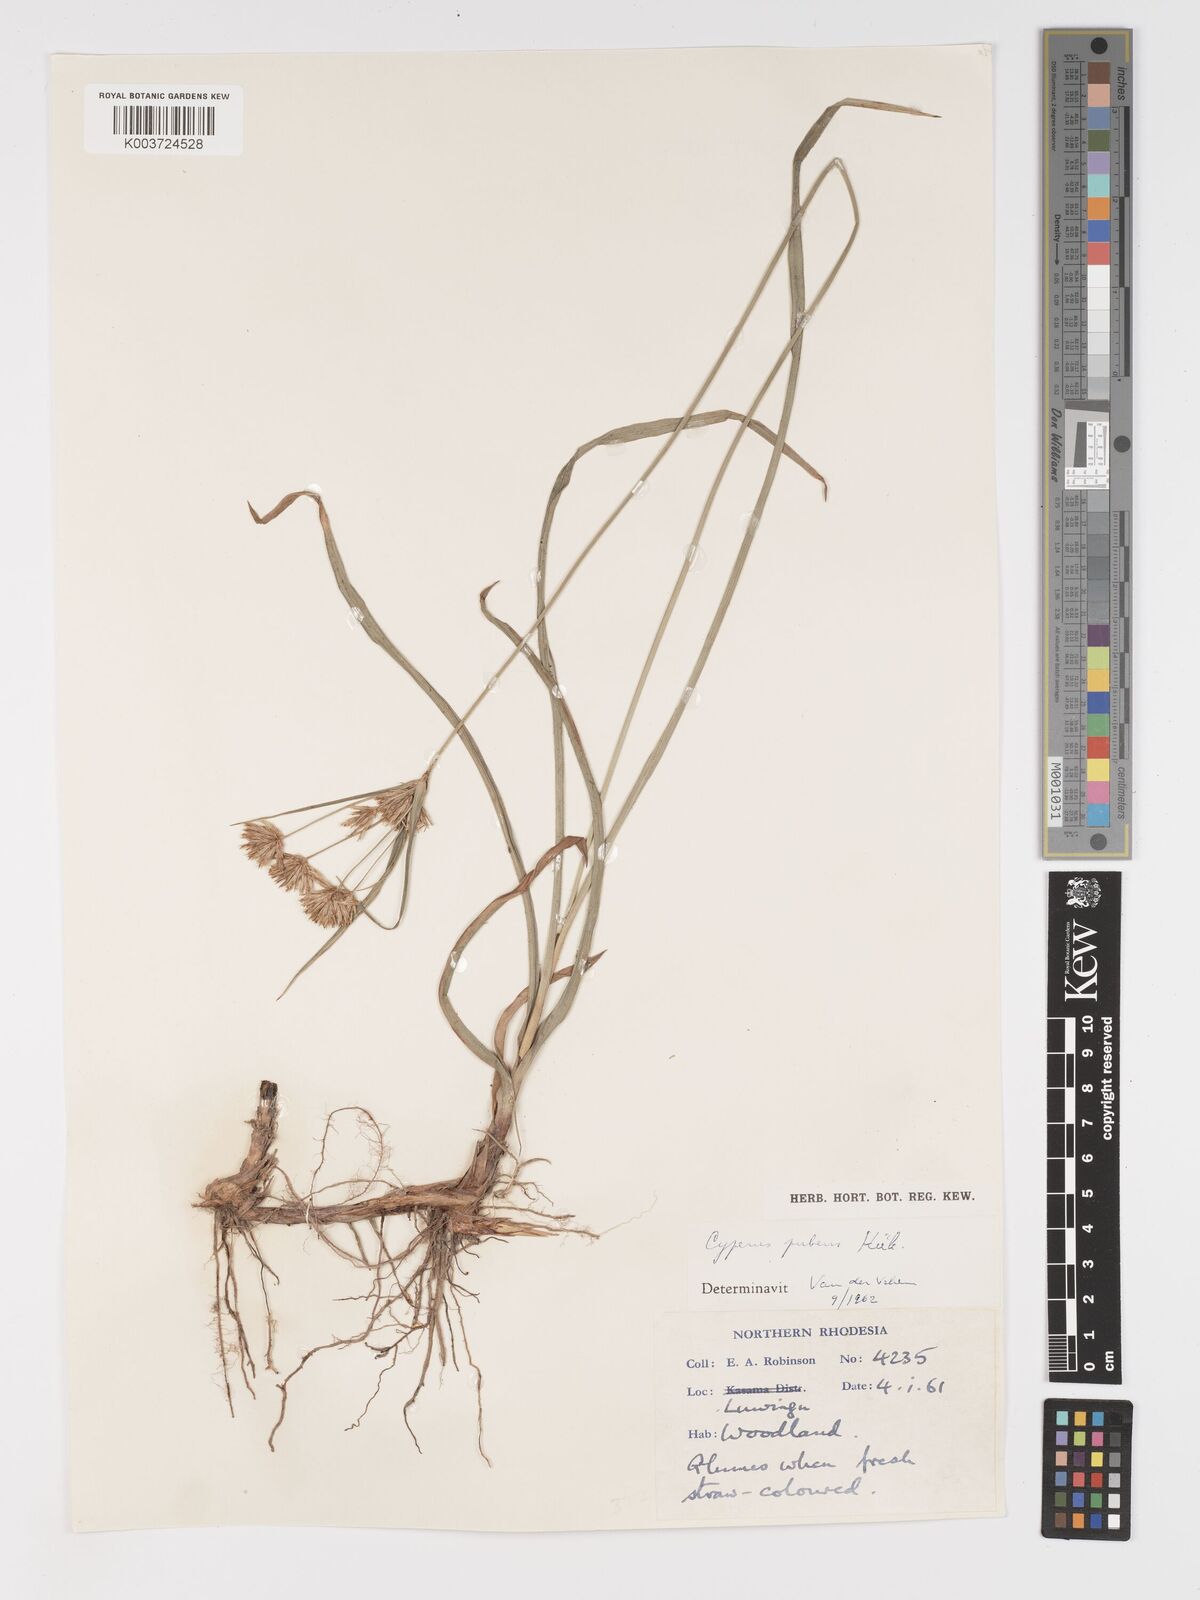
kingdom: Plantae
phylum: Tracheophyta
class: Liliopsida
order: Poales
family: Cyperaceae
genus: Cyperus
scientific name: Cyperus pubens
